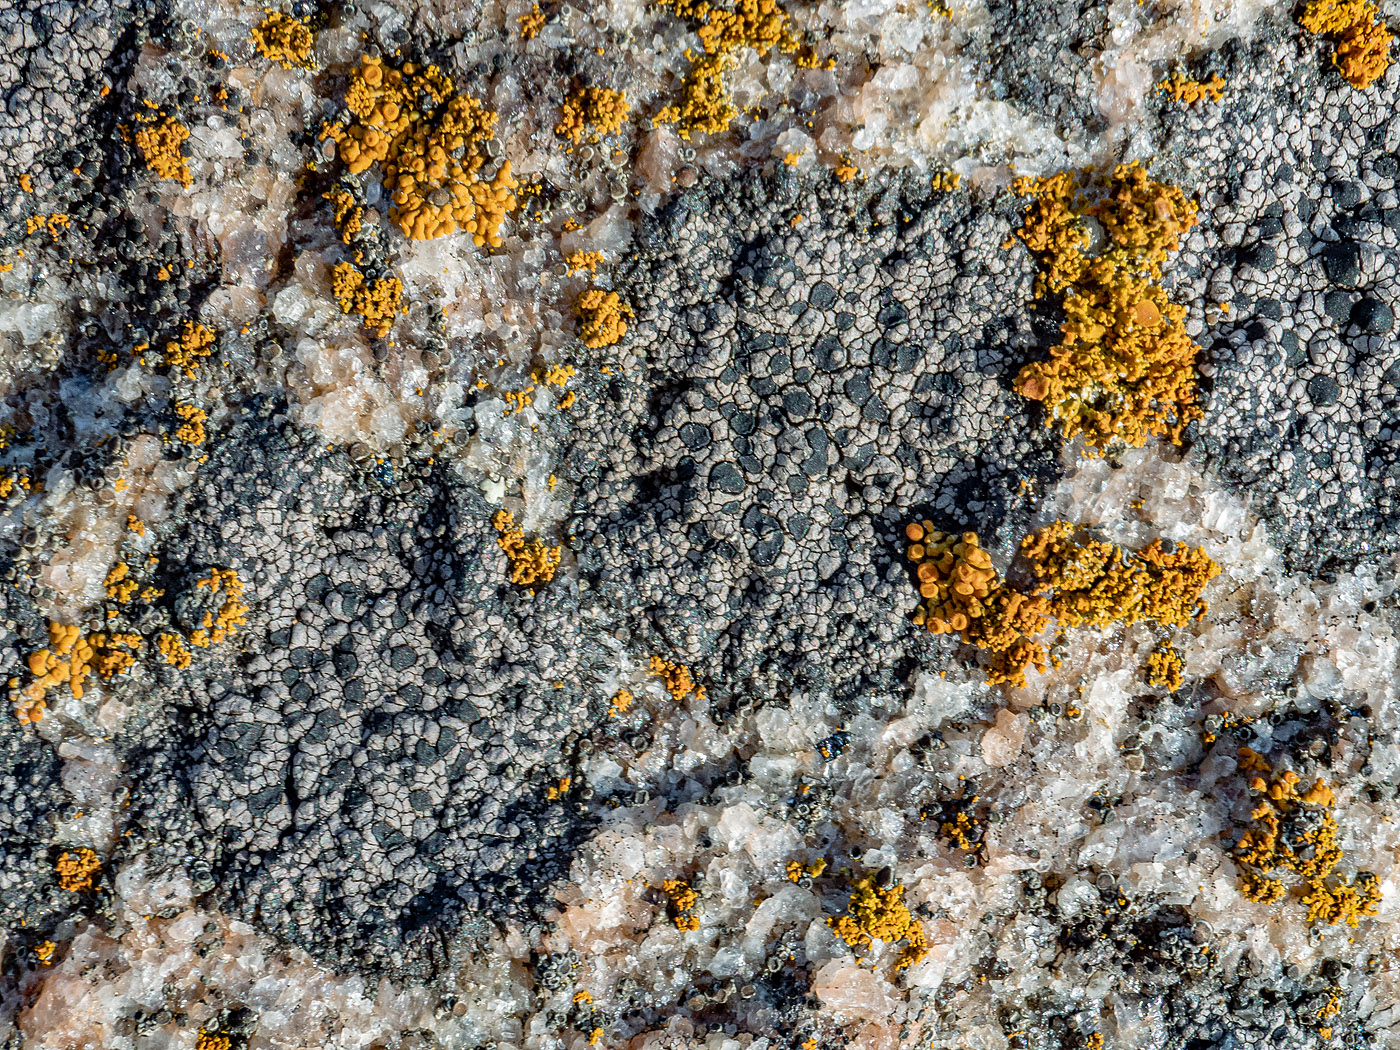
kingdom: Fungi
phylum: Ascomycota
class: Lecanoromycetes
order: Rhizocarpales
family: Rhizocarpaceae
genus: Rhizocarpon
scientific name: Rhizocarpon richardii
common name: Kyst-landkortlav
